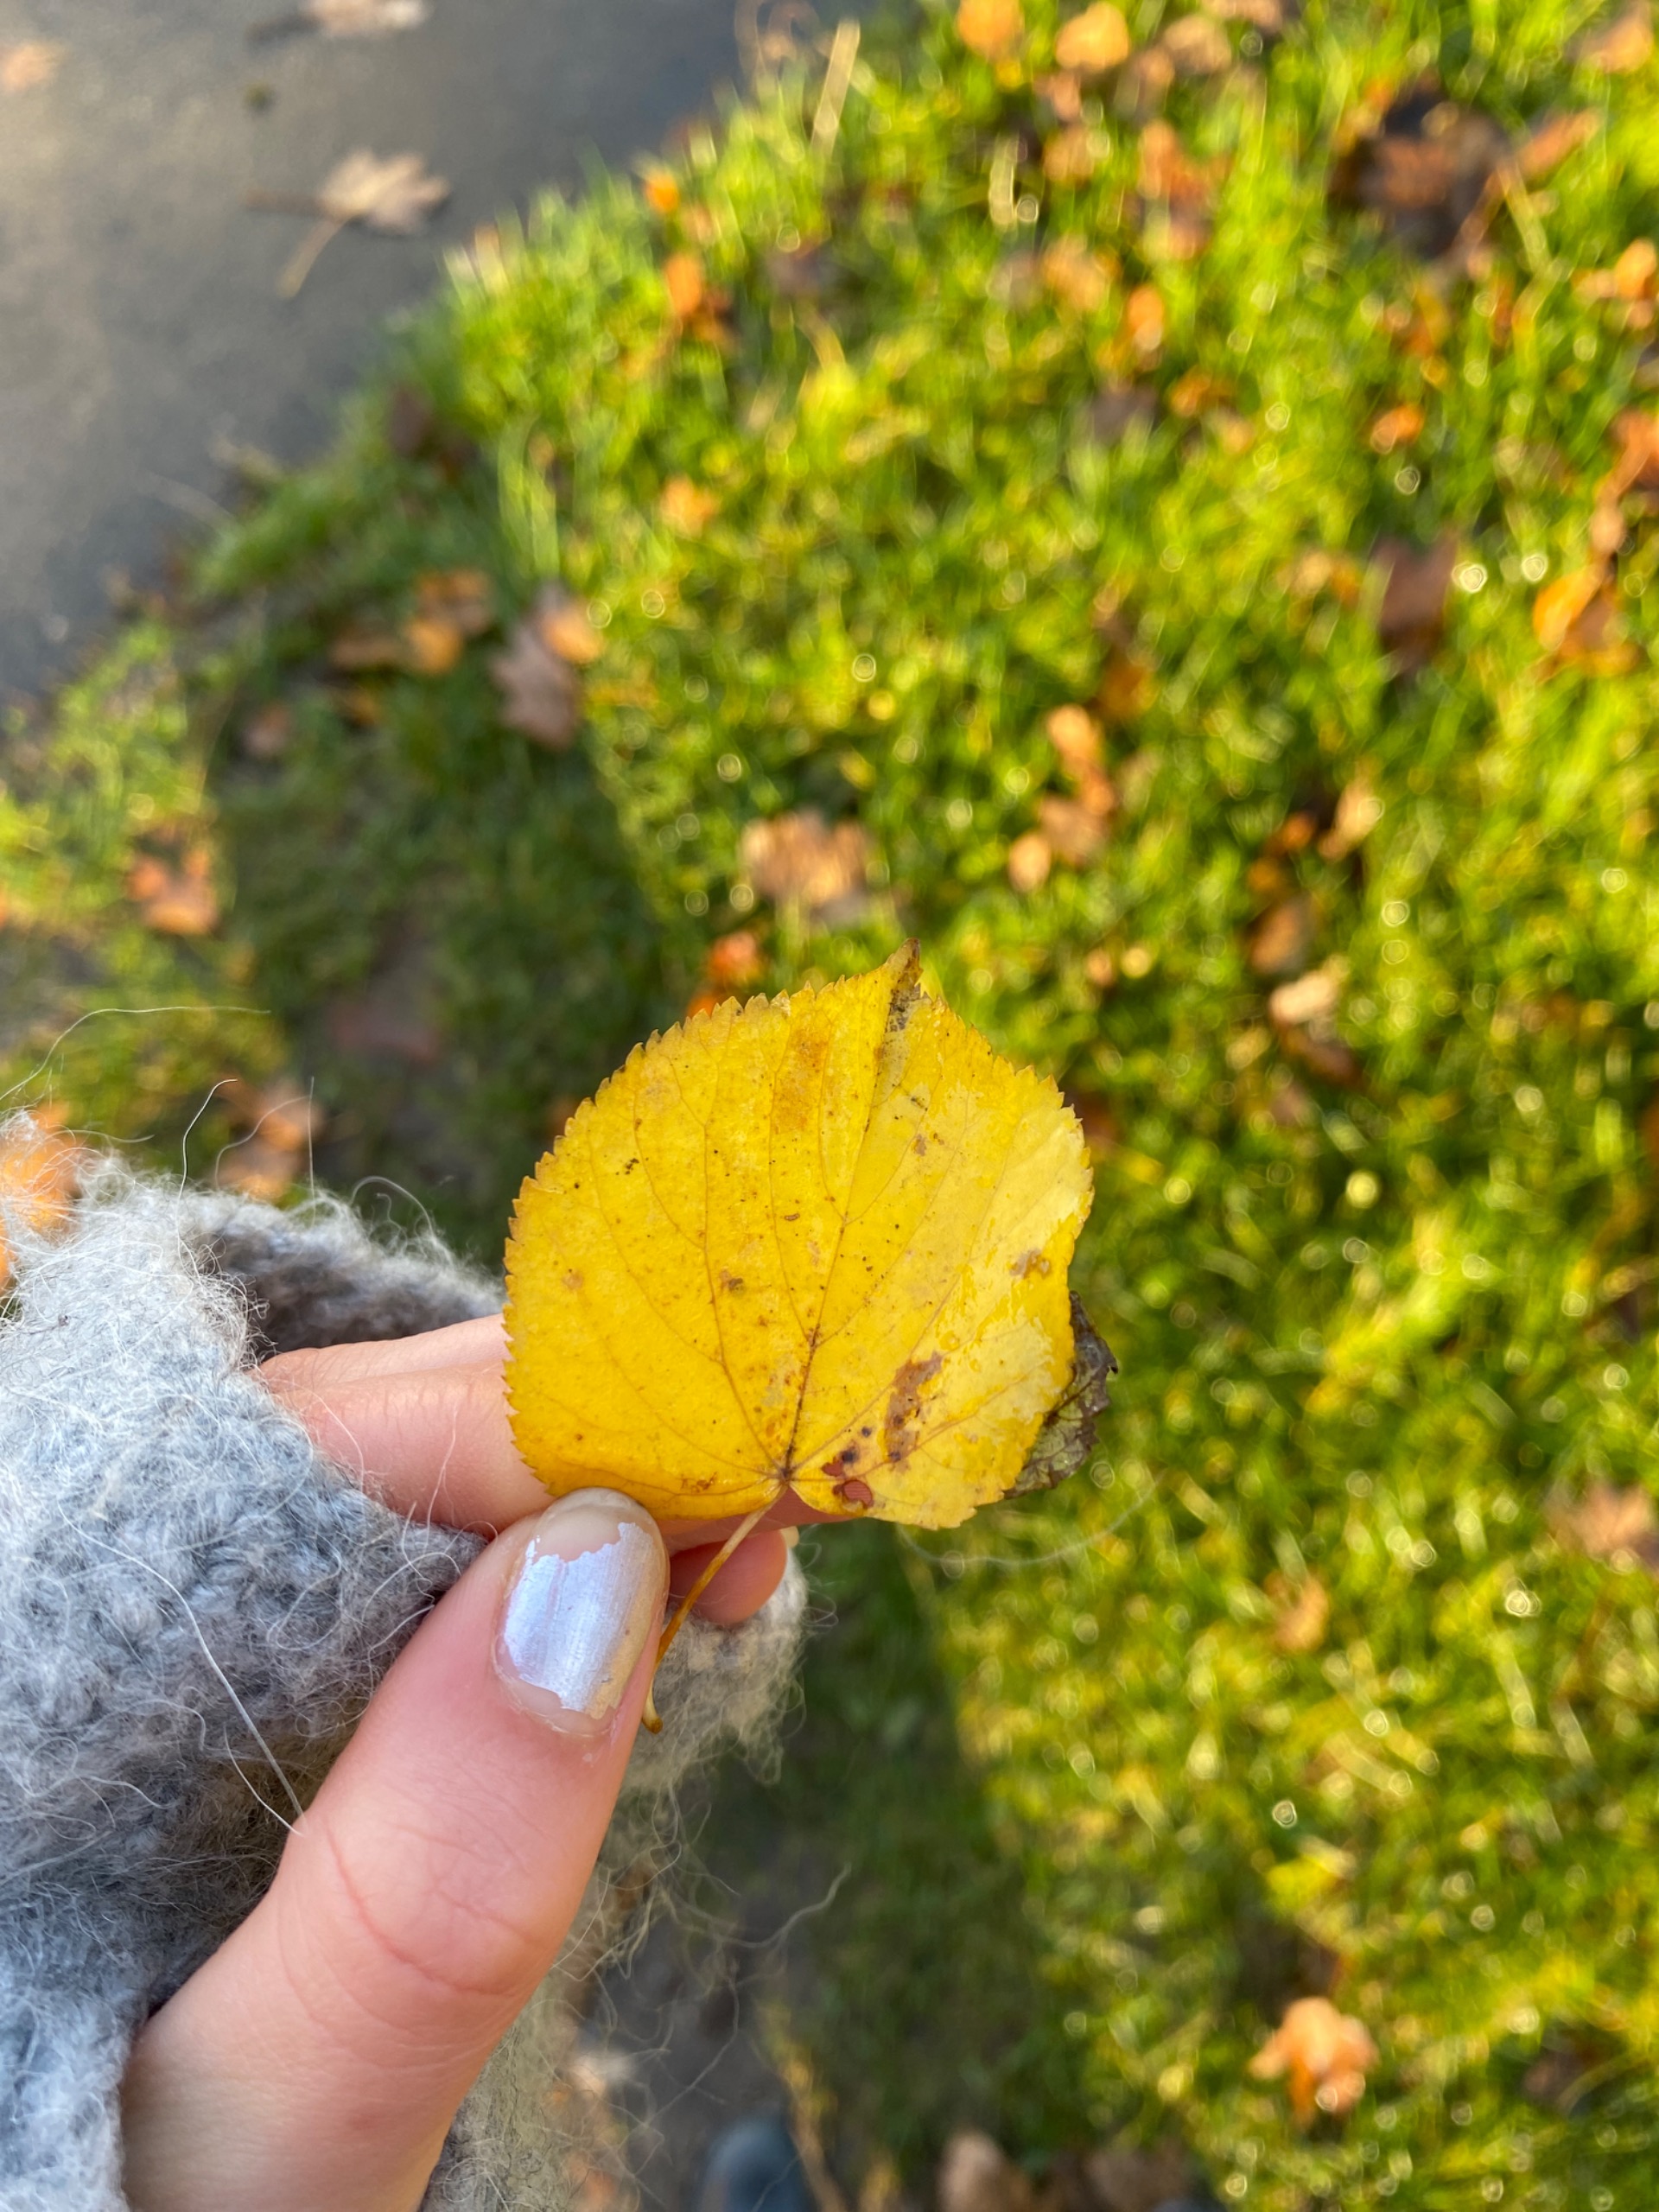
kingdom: Plantae
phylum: Tracheophyta
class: Magnoliopsida
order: Malvales
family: Malvaceae
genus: Tilia
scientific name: Tilia
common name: Lindeslægten
